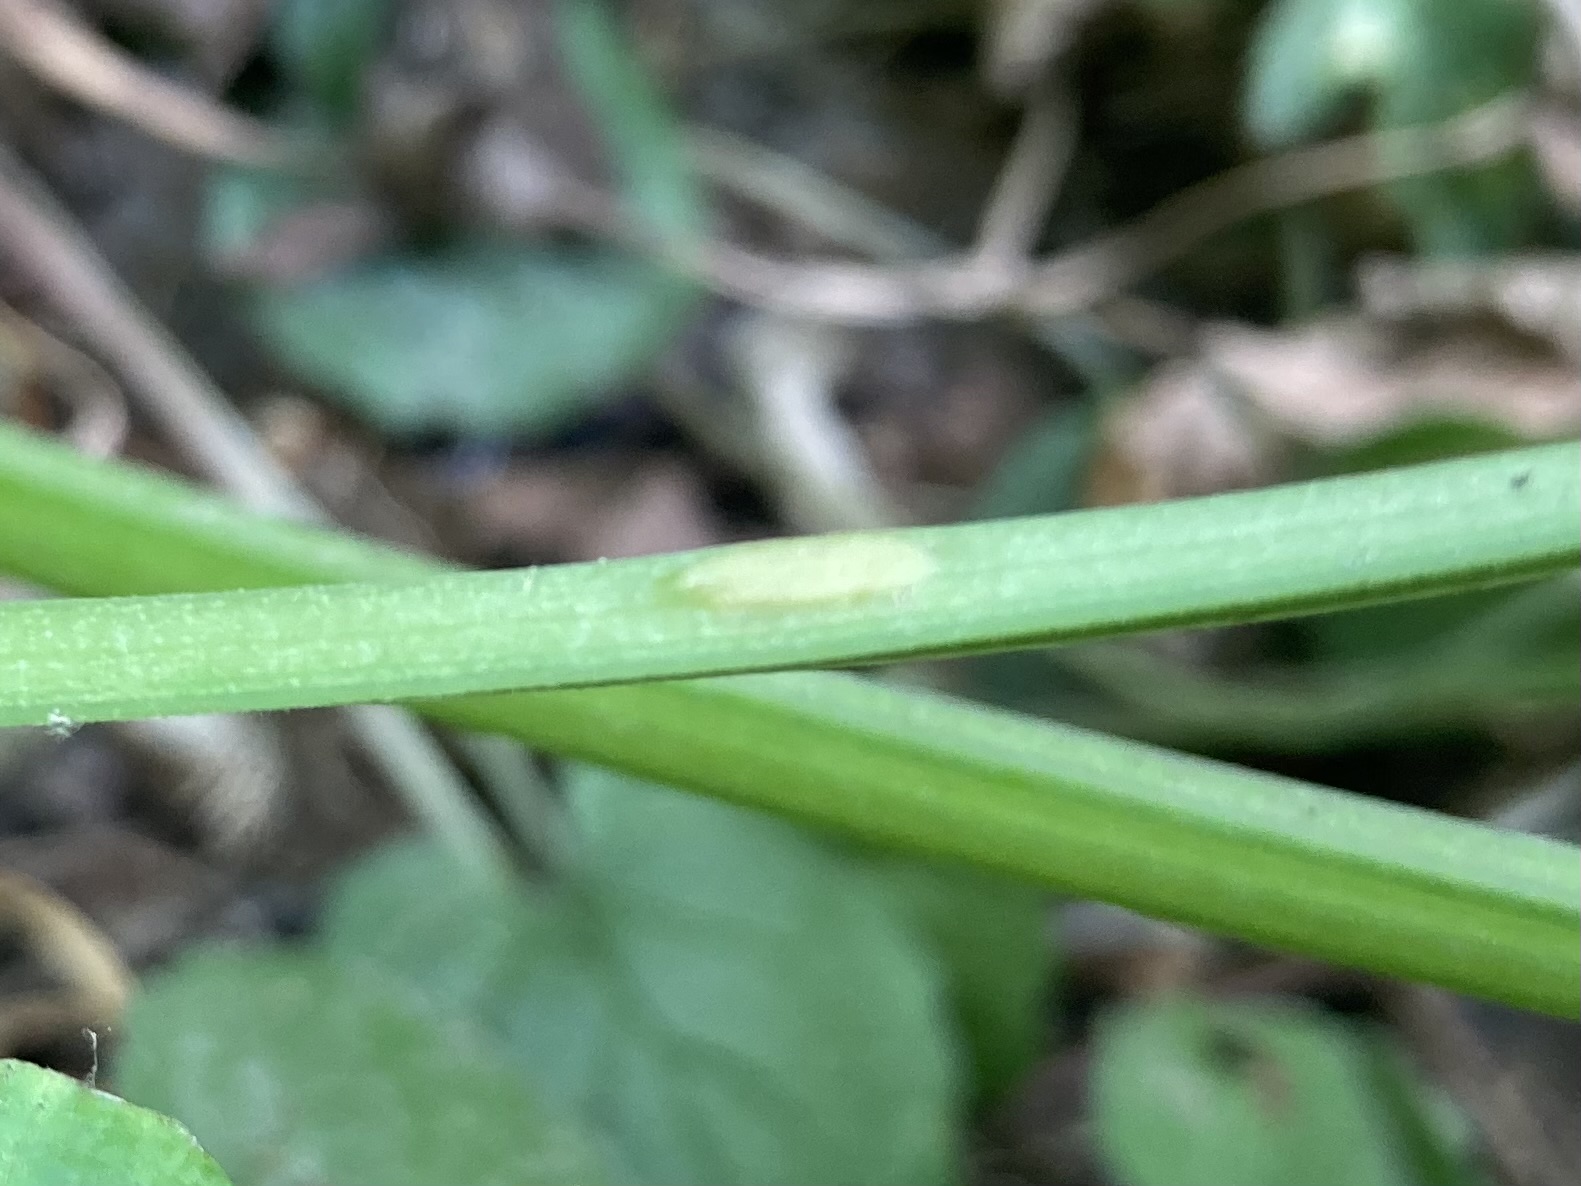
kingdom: Fungi
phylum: Ascomycota
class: Taphrinomycetes
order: Taphrinales
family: Taphrinaceae
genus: Protomyces
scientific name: Protomyces macrosporus
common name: skvalderkål-vablesæk
